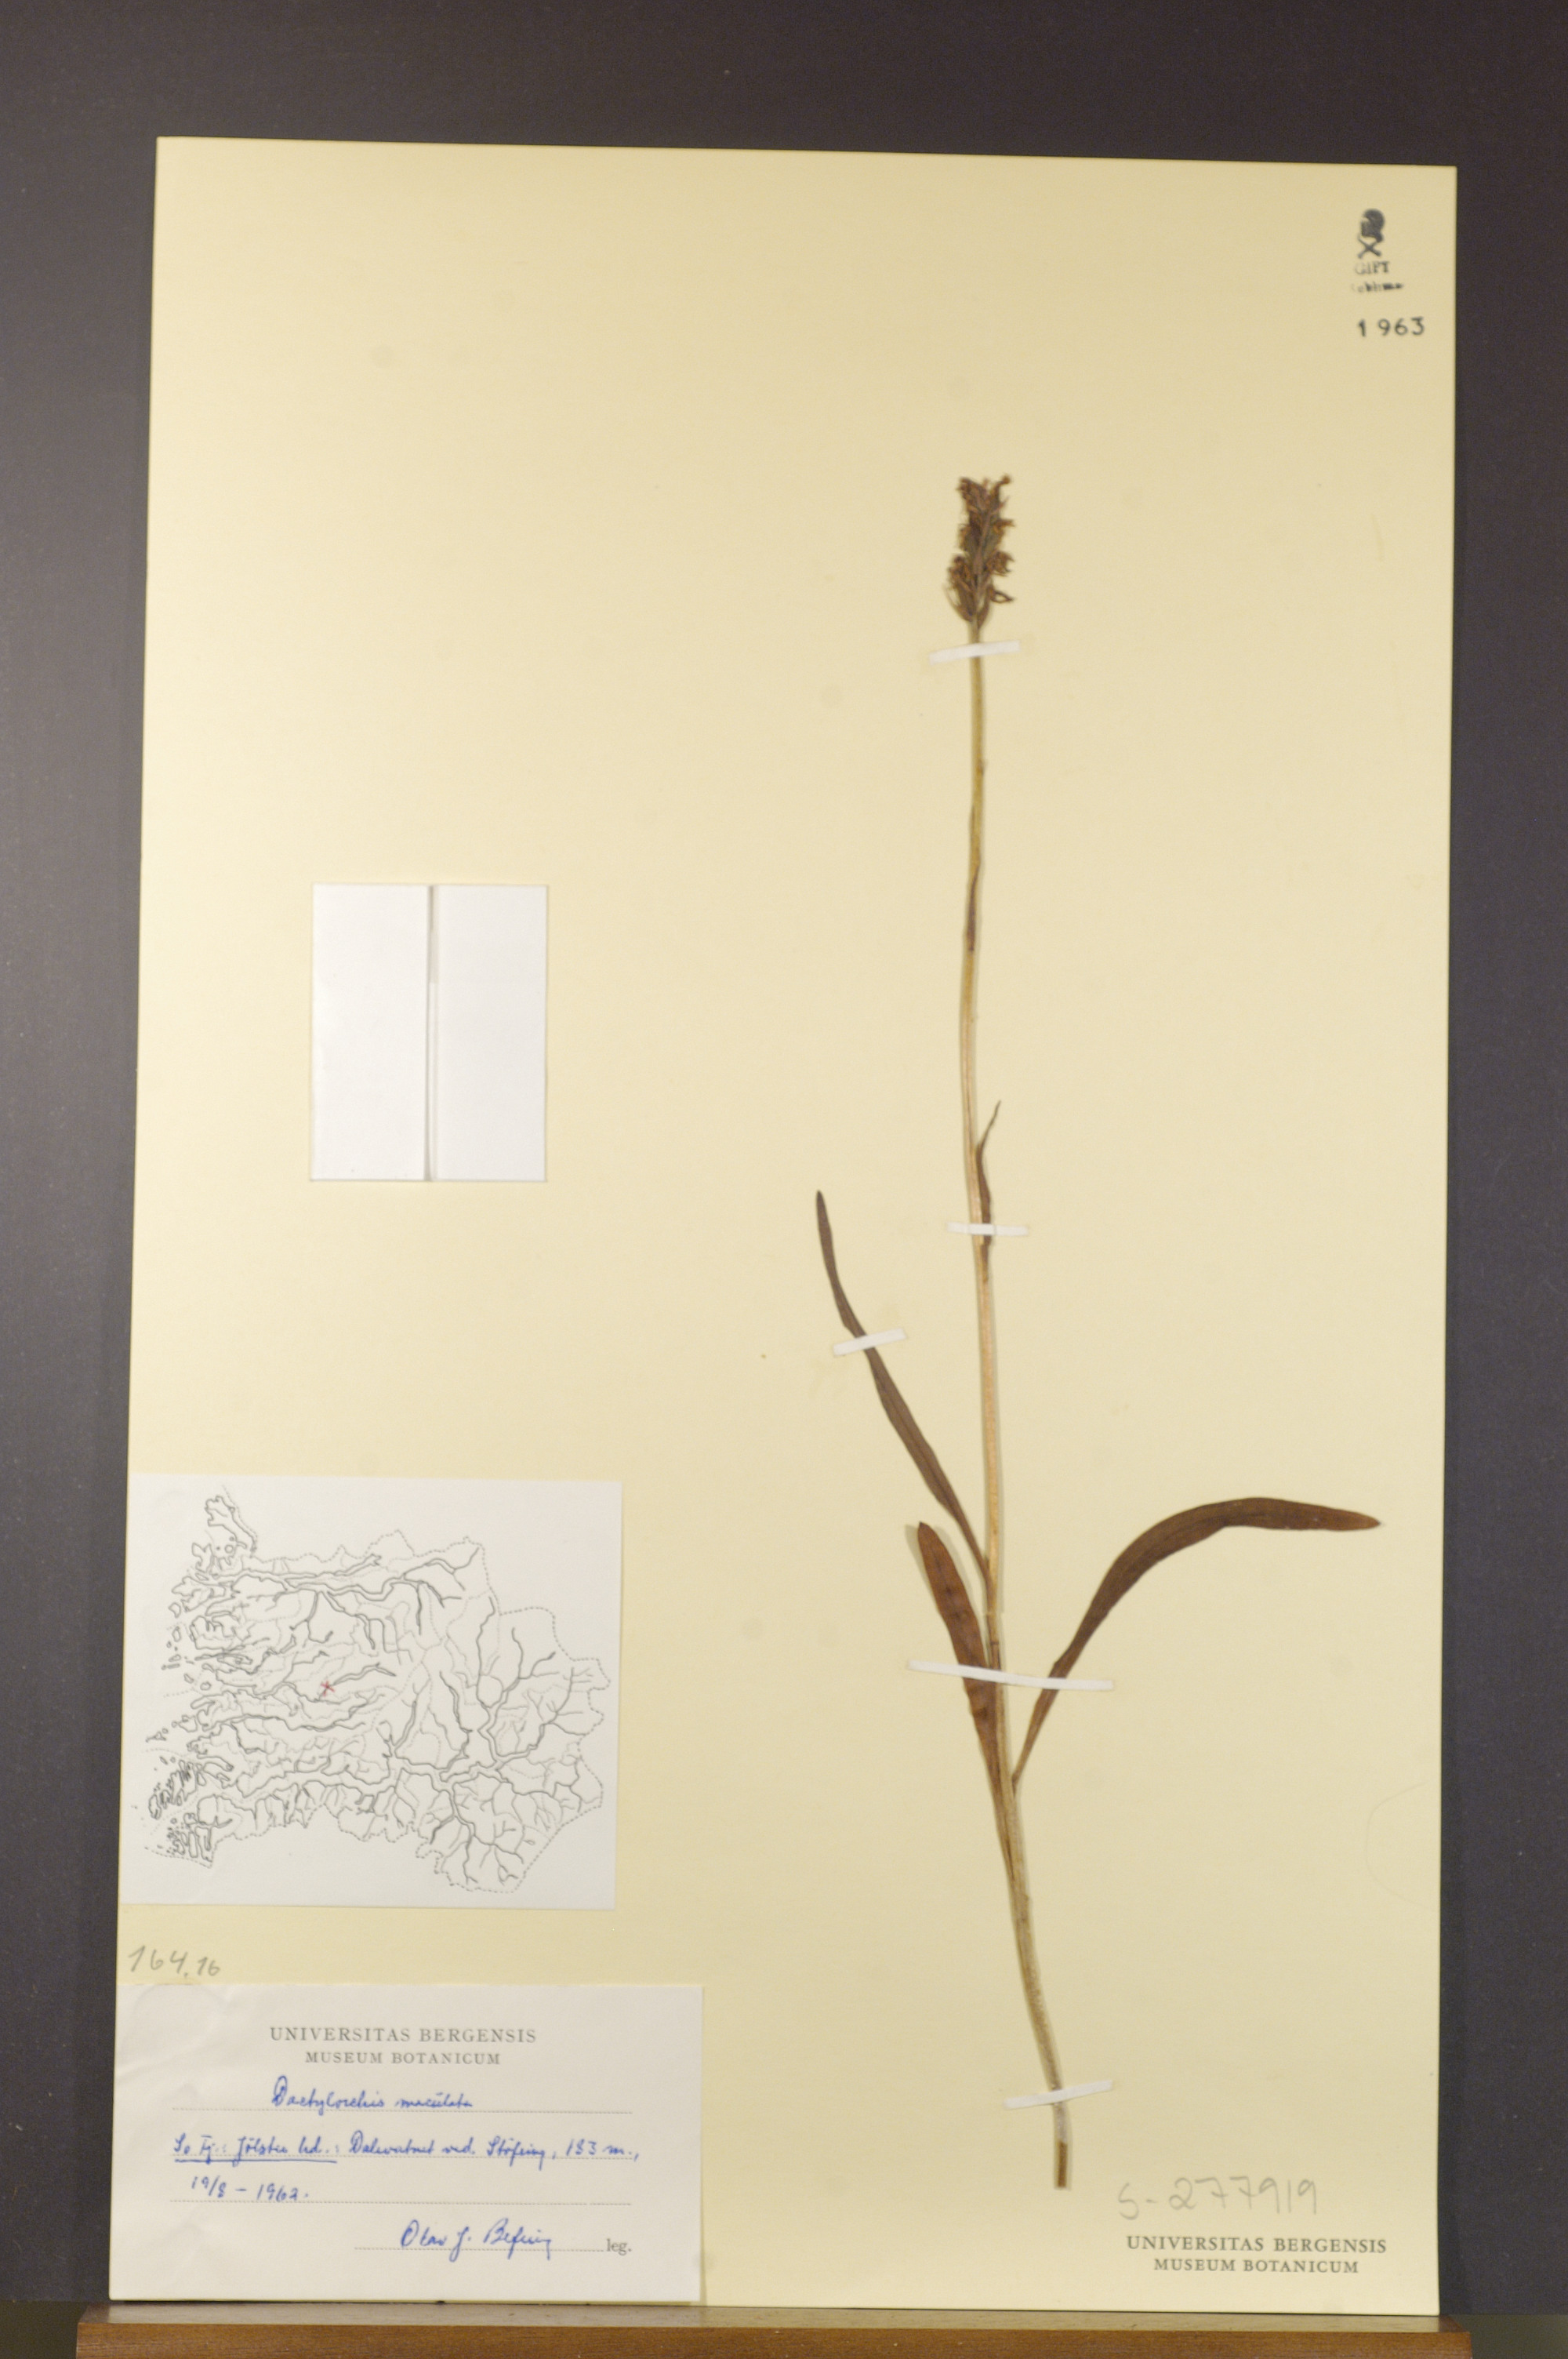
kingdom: Plantae
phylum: Tracheophyta
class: Liliopsida
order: Asparagales
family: Orchidaceae
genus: Dactylorhiza
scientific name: Dactylorhiza maculata
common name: Heath spotted-orchid
